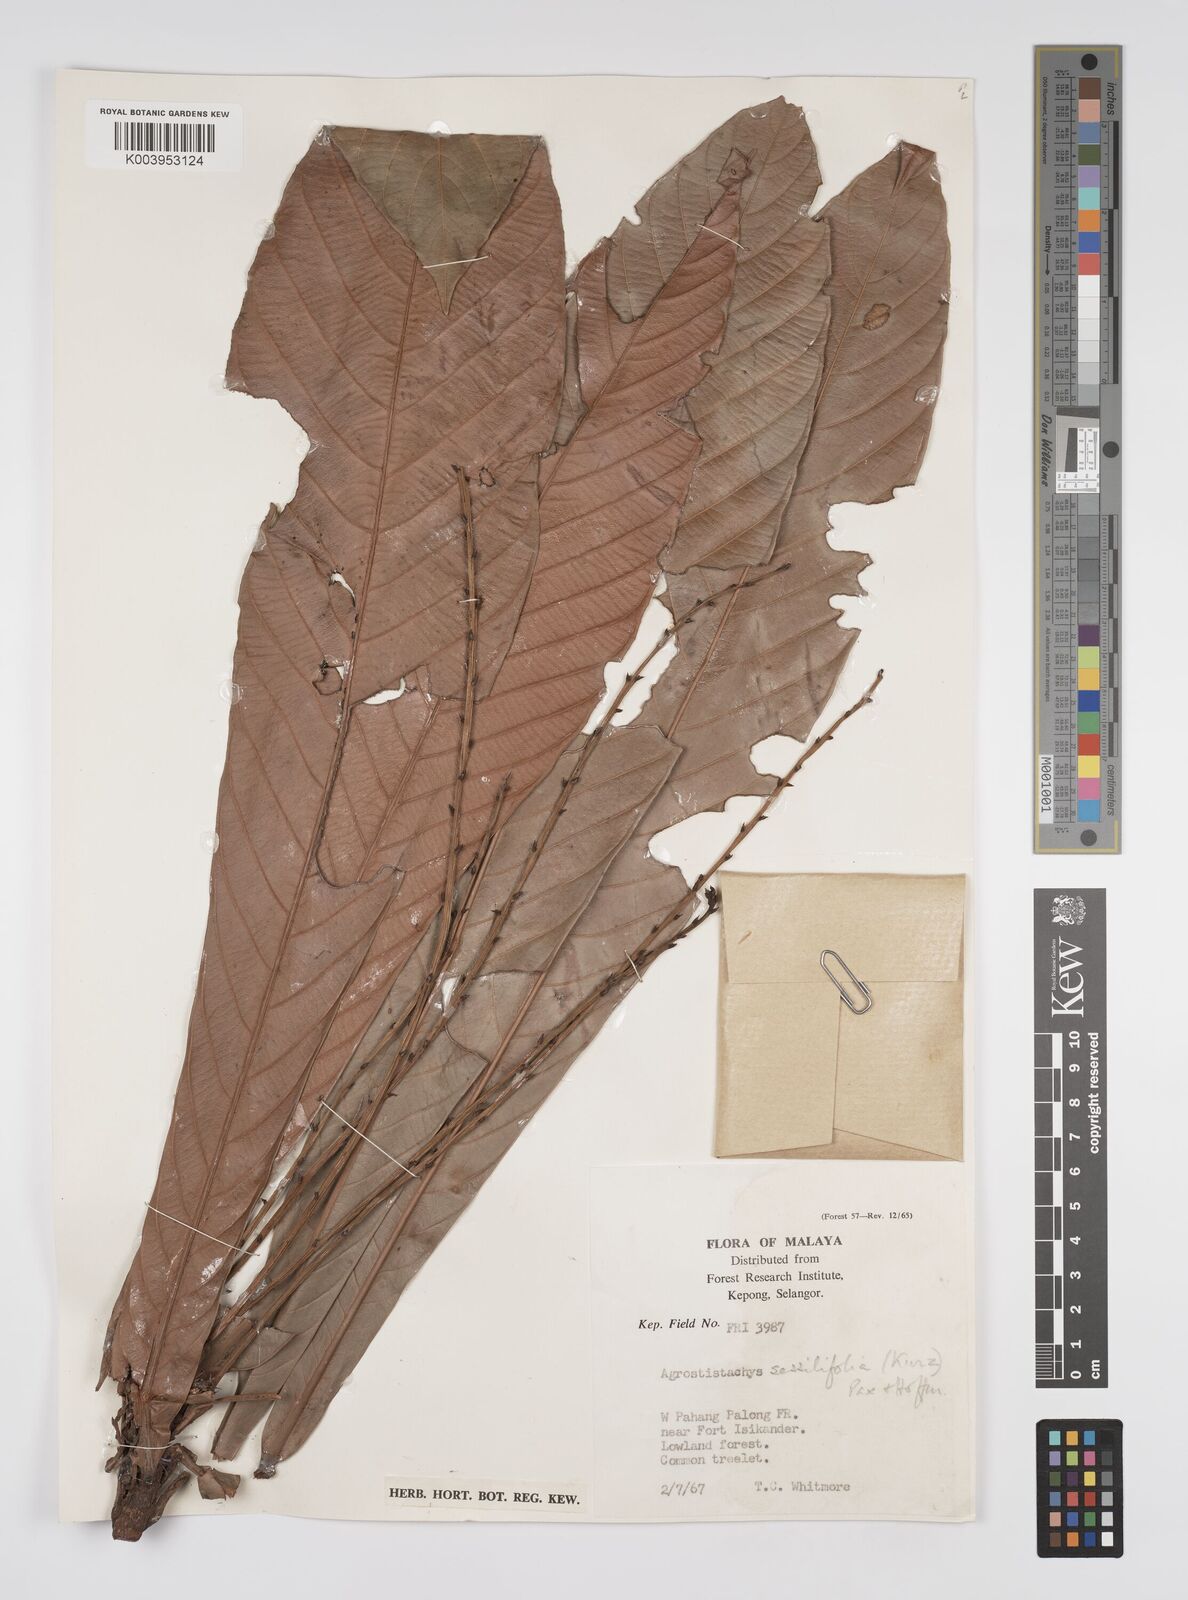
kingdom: Plantae
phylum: Tracheophyta
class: Magnoliopsida
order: Malpighiales
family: Euphorbiaceae
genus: Agrostistachys
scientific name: Agrostistachys sessilifolia
